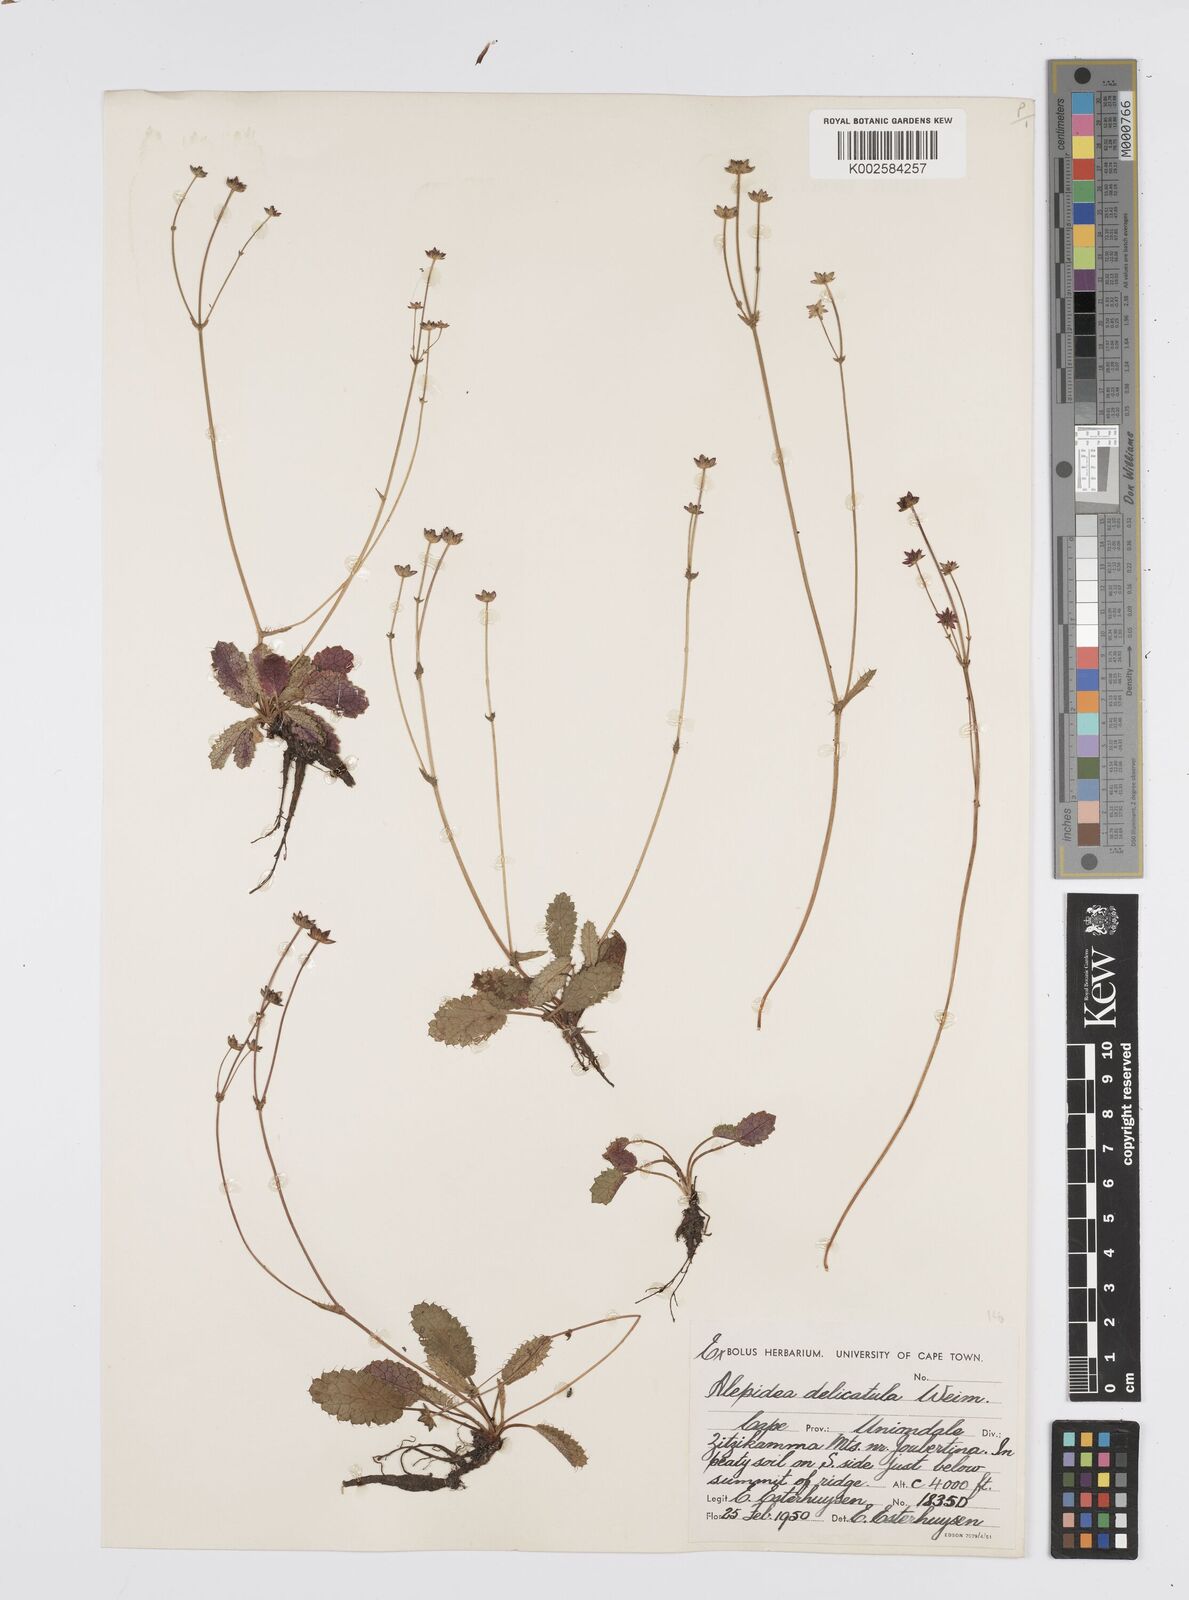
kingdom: Plantae
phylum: Tracheophyta
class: Magnoliopsida
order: Apiales
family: Apiaceae
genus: Alepidea
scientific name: Alepidea delicatula
